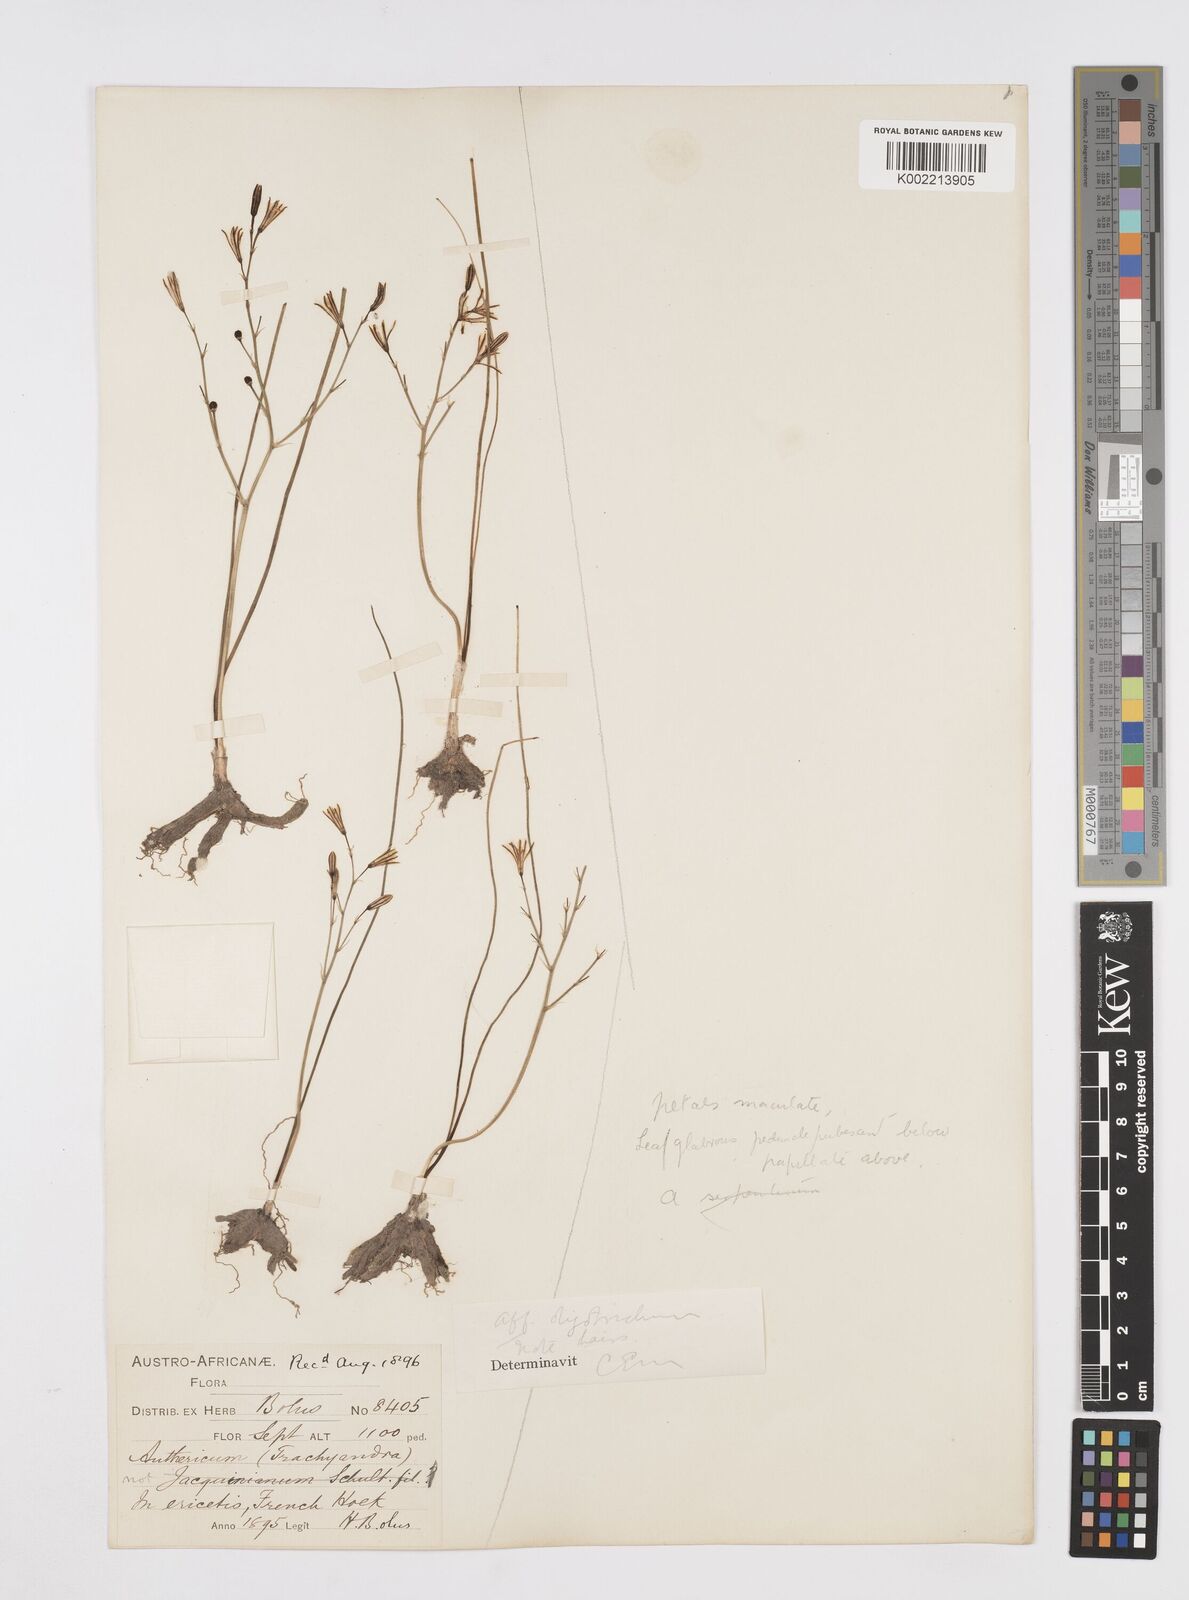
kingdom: Plantae
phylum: Tracheophyta
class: Liliopsida
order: Asparagales
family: Asphodelaceae
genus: Trachyandra
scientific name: Trachyandra flexifolia
